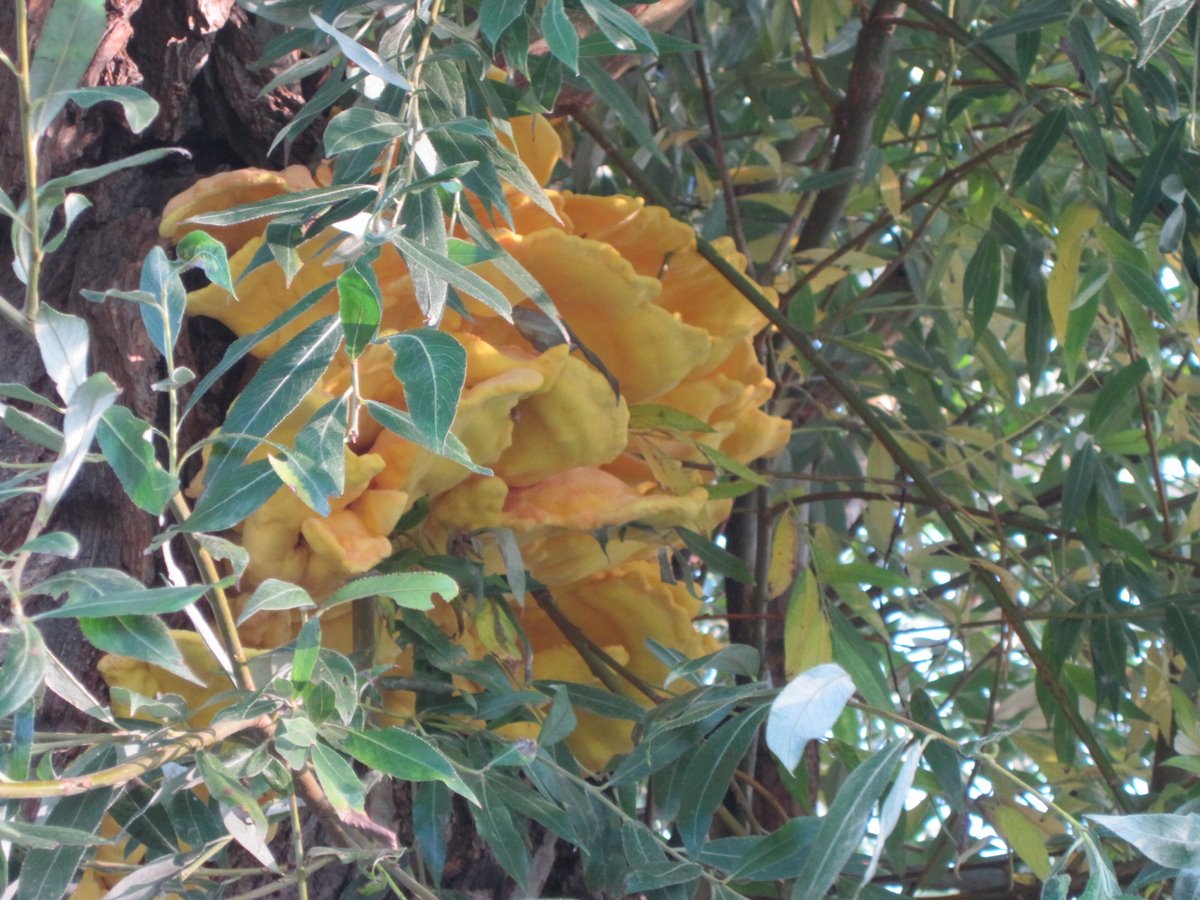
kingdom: Fungi
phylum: Basidiomycota
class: Agaricomycetes
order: Polyporales
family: Laetiporaceae
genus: Laetiporus
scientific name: Laetiporus sulphureus
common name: svovlporesvamp
